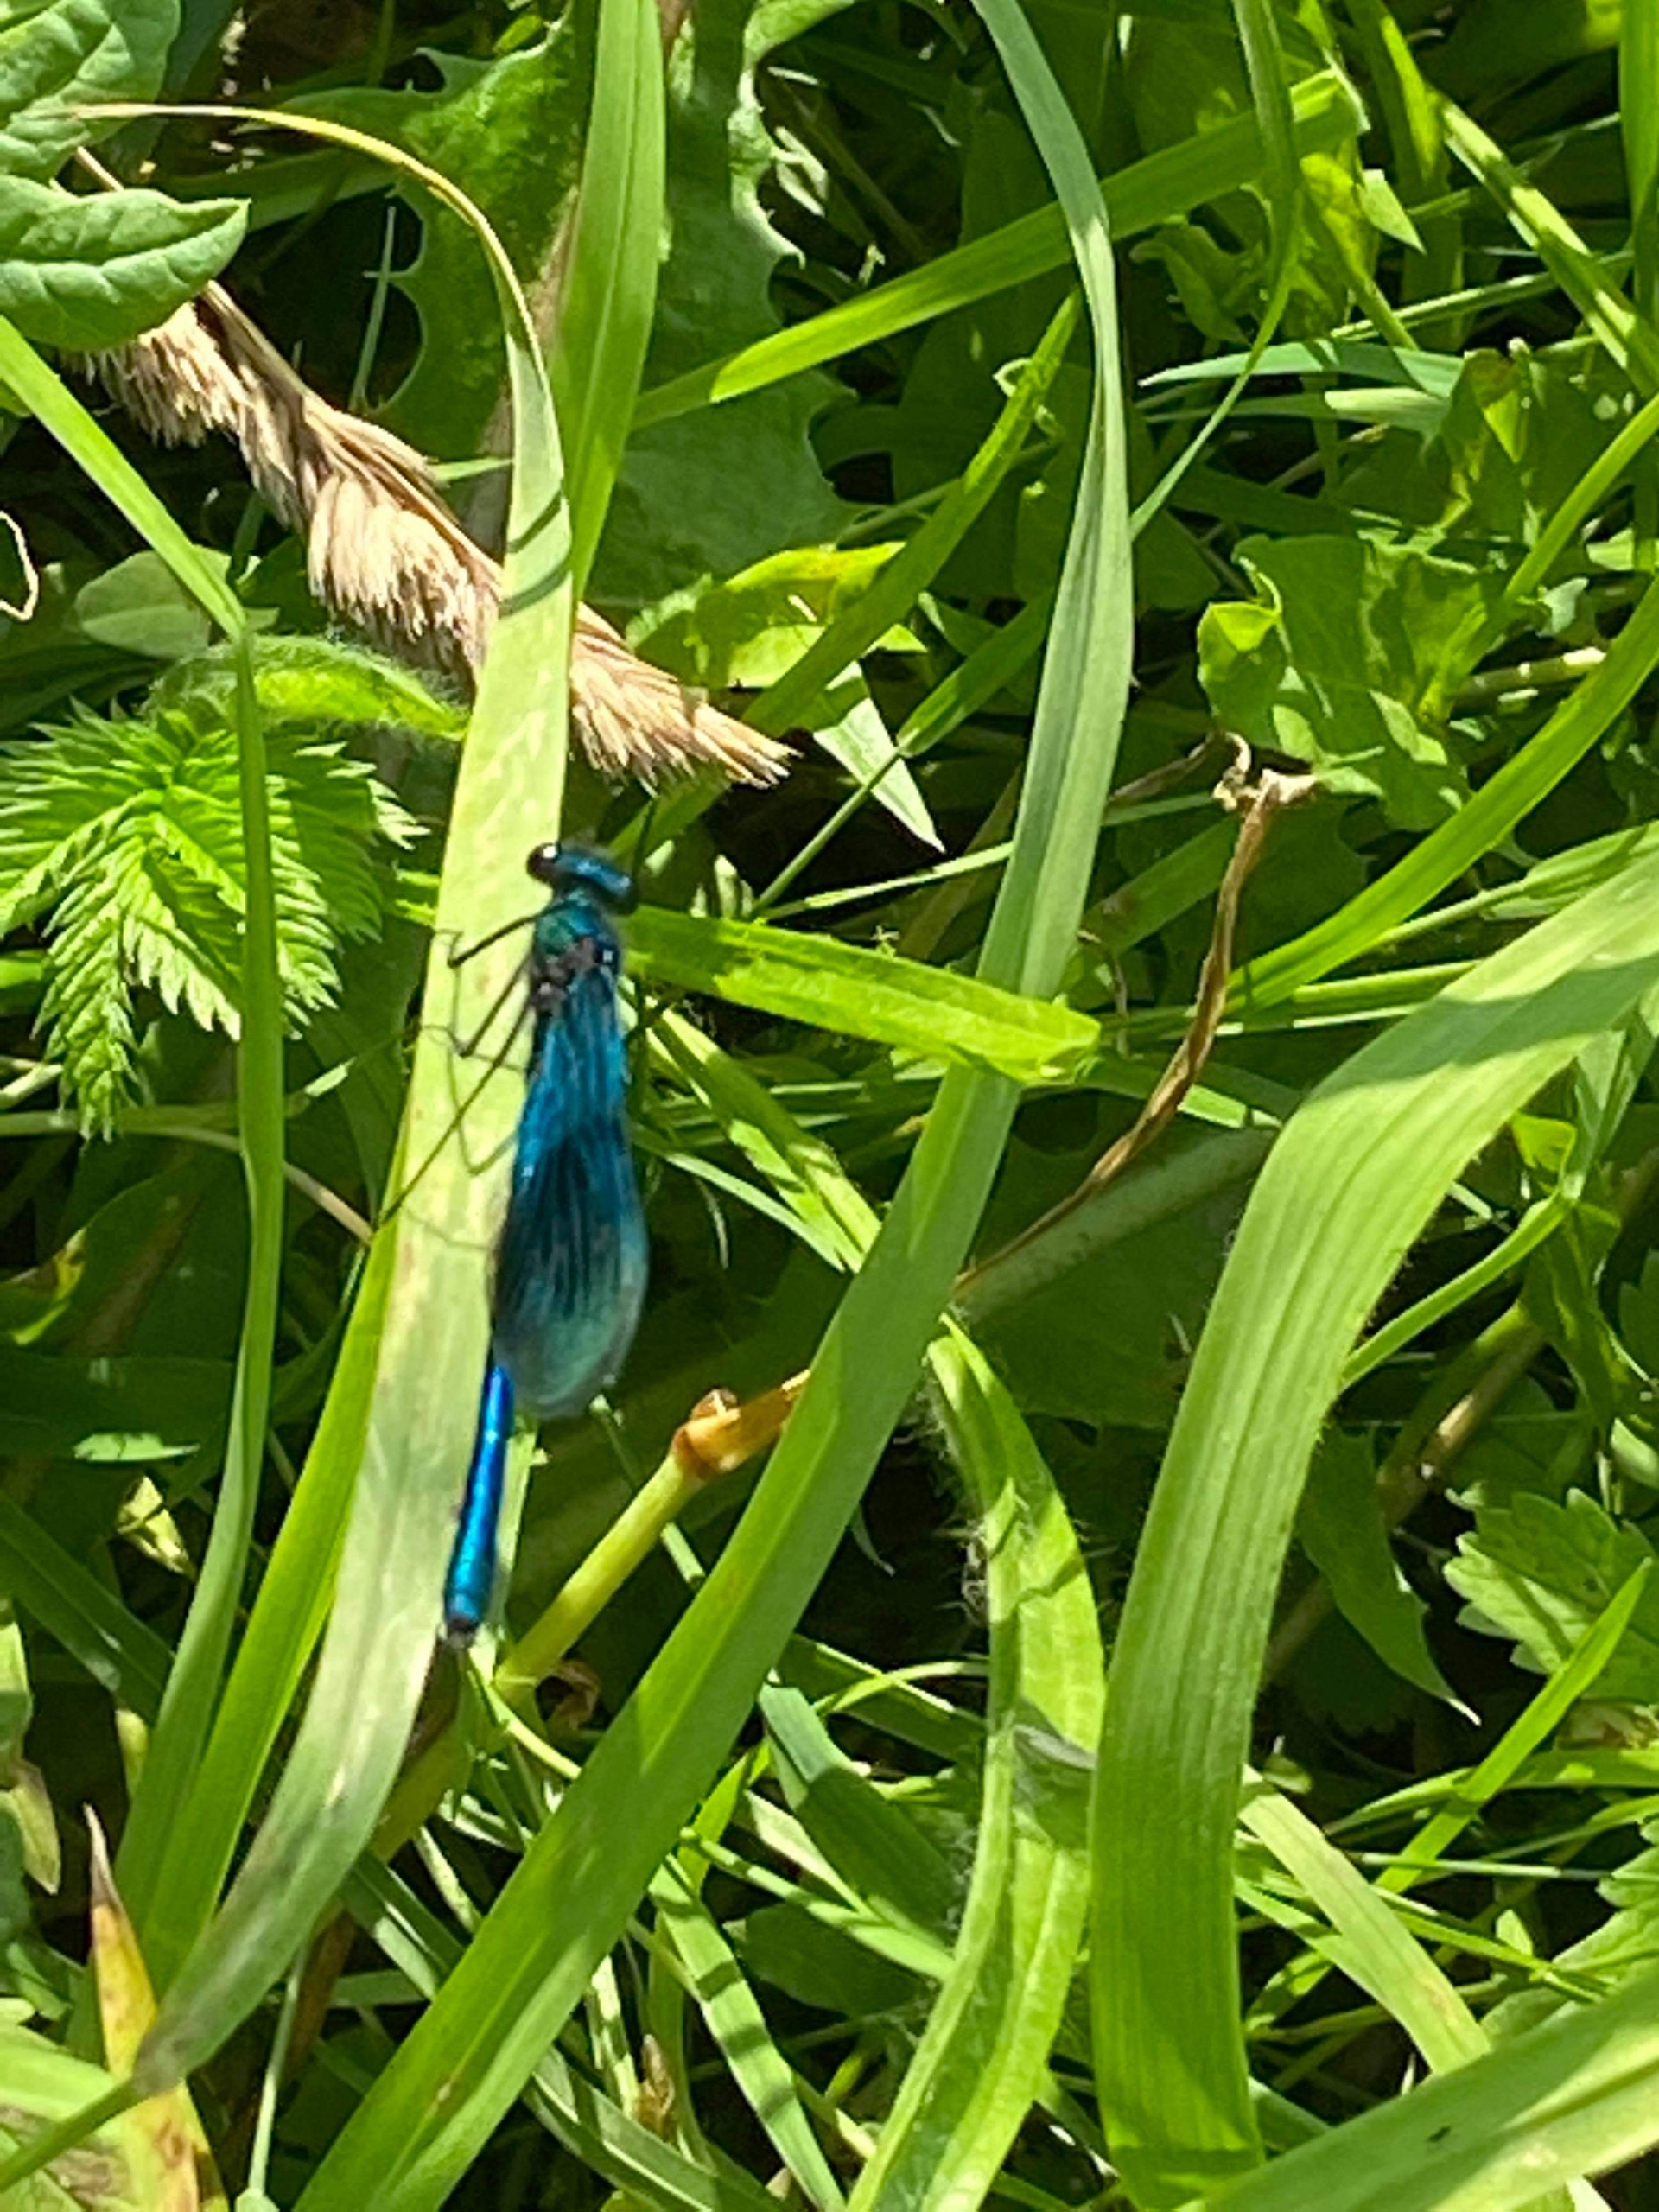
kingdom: Animalia
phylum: Arthropoda
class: Insecta
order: Odonata
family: Calopterygidae
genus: Calopteryx
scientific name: Calopteryx splendens
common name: Blåbåndet pragtvandnymfe
